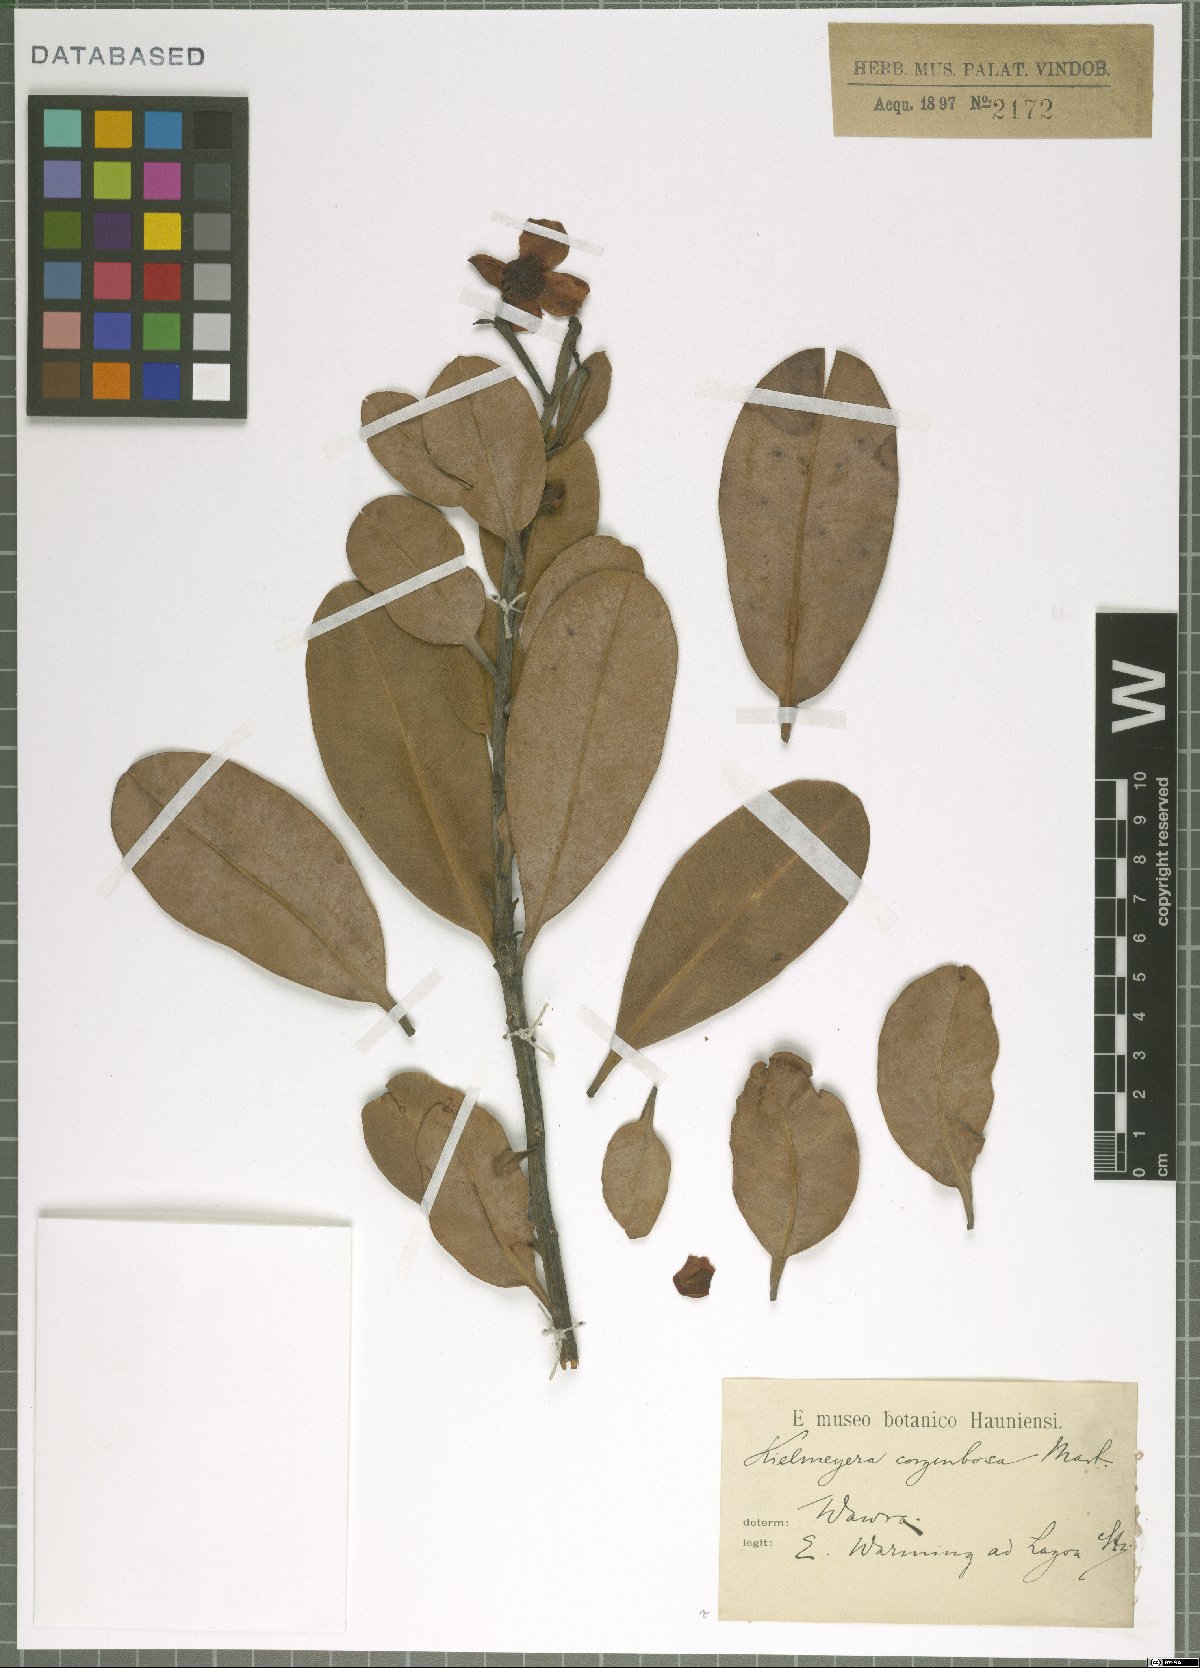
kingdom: Plantae
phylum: Tracheophyta
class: Magnoliopsida
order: Malpighiales
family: Calophyllaceae
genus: Kielmeyera
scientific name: Kielmeyera corymbosa
